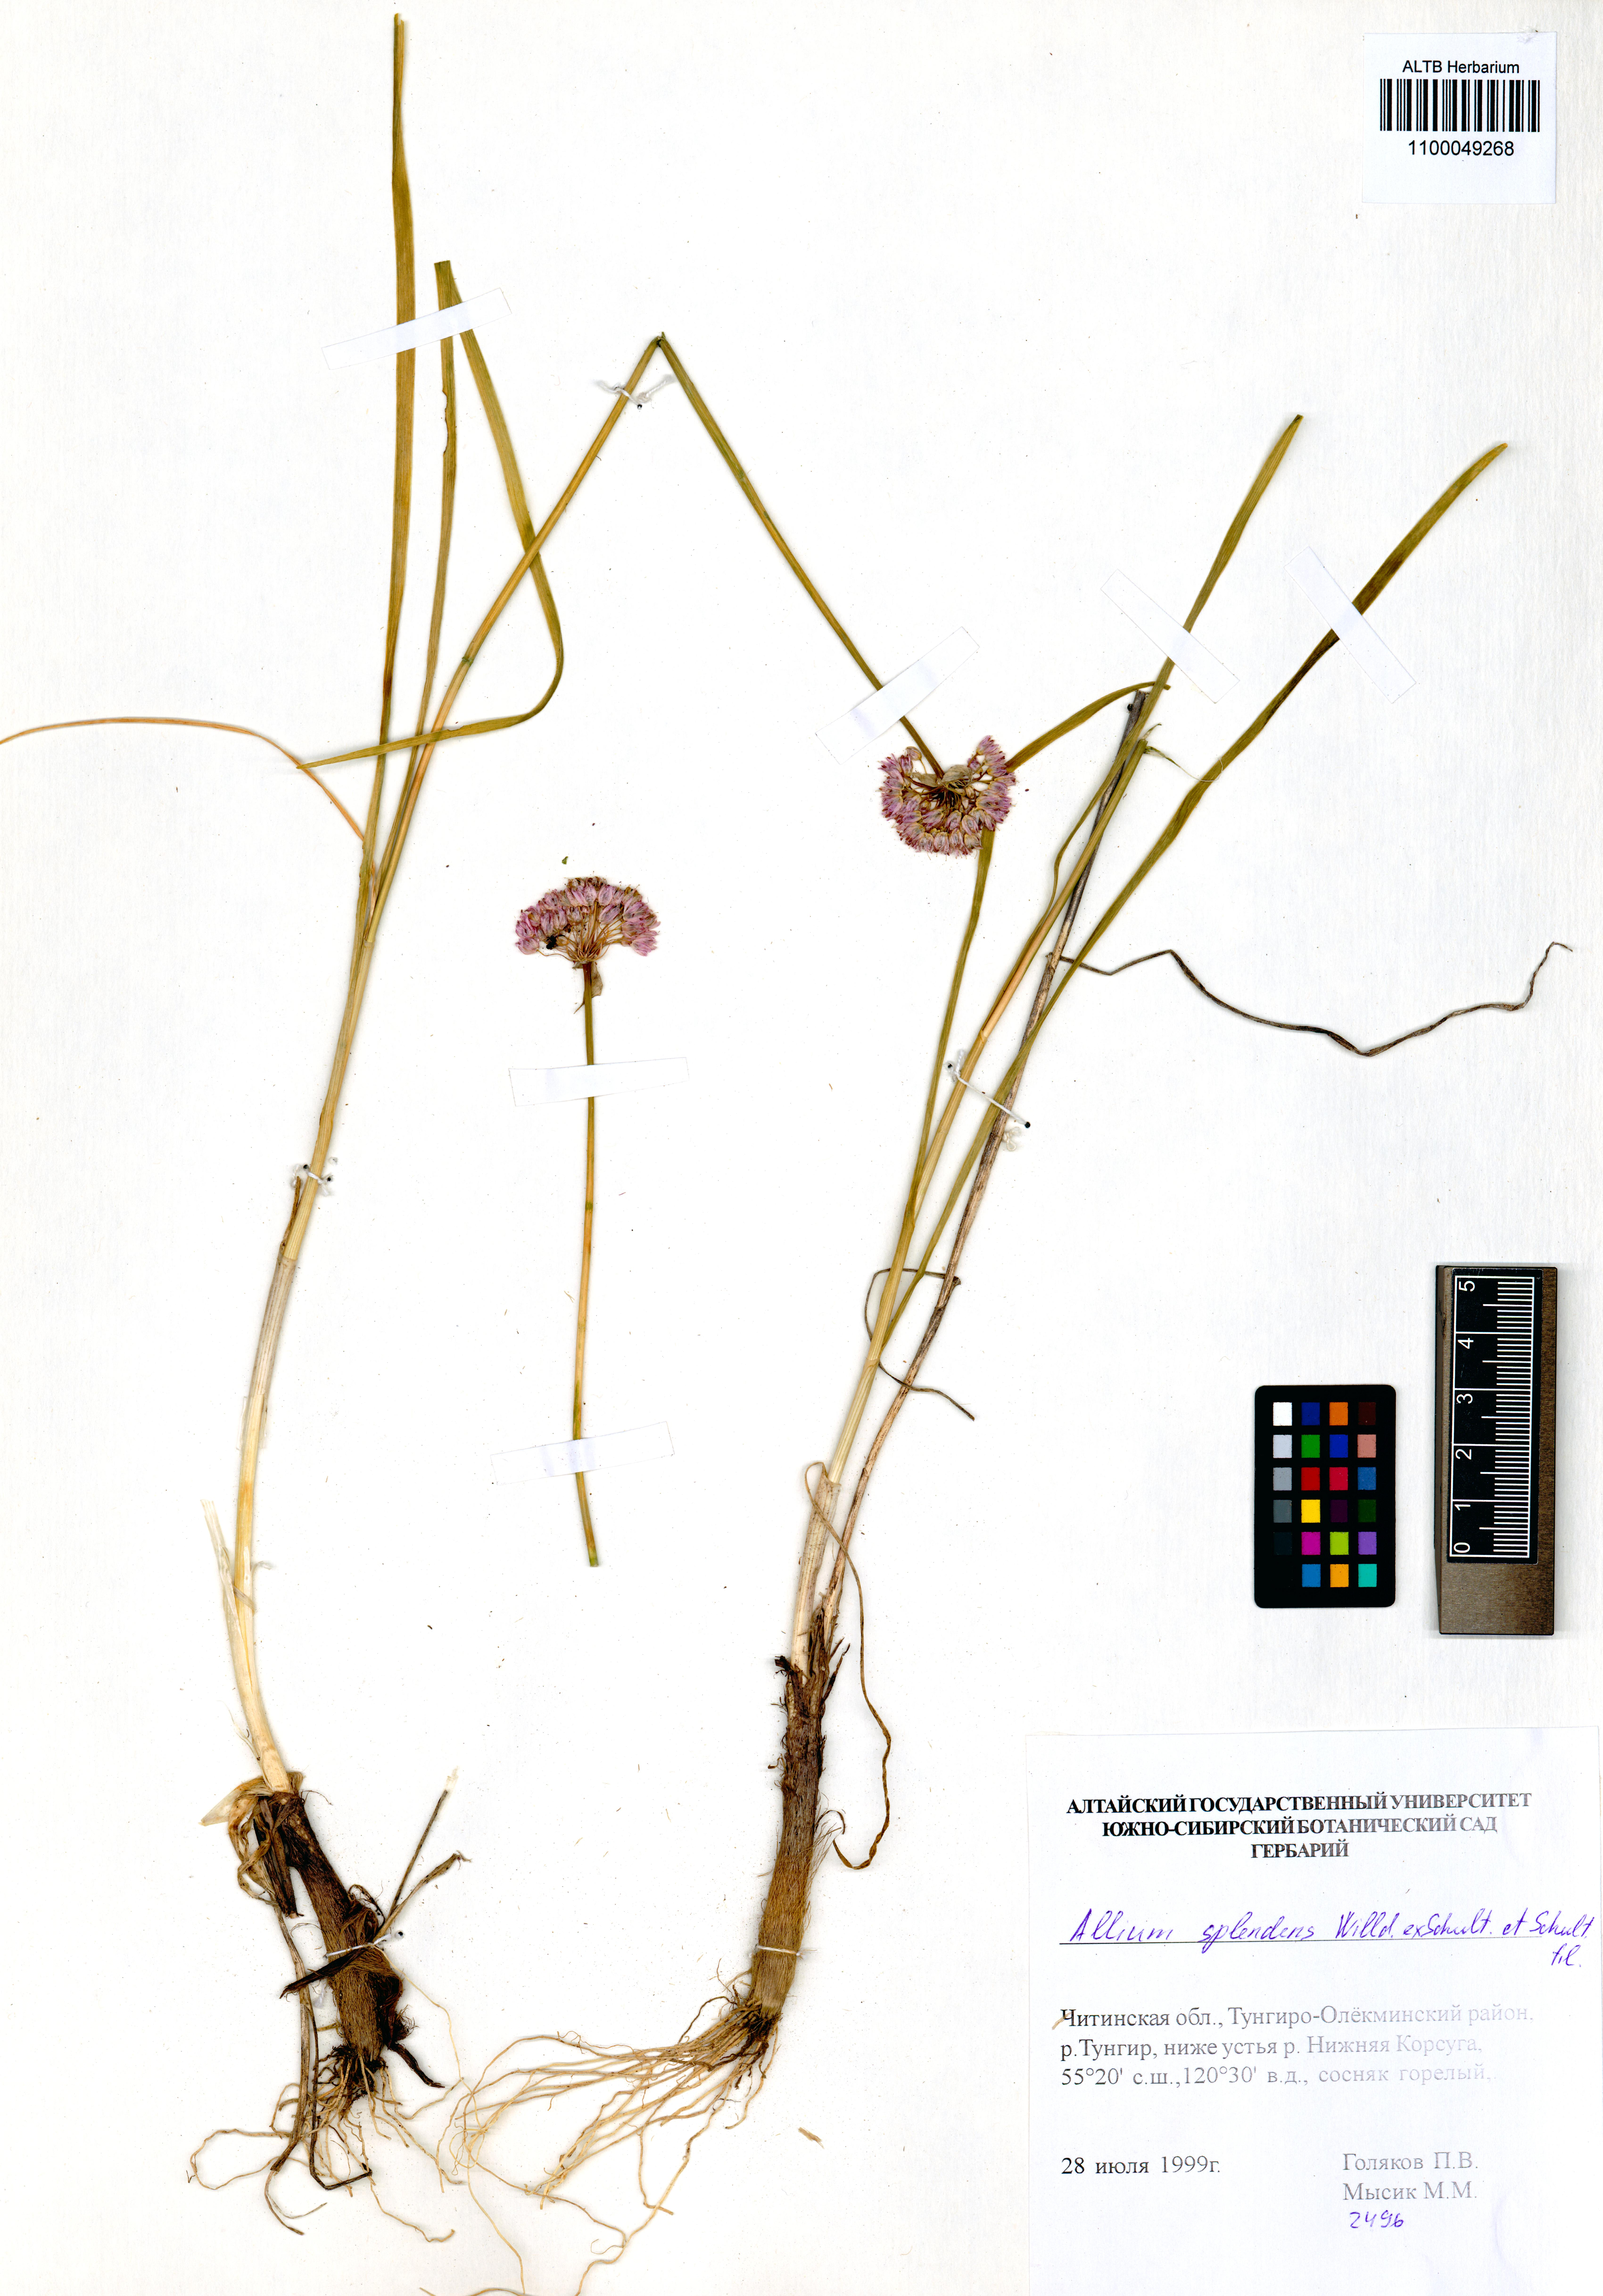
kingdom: Plantae
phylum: Tracheophyta
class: Liliopsida
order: Asparagales
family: Amaryllidaceae
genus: Allium
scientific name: Allium splendens
